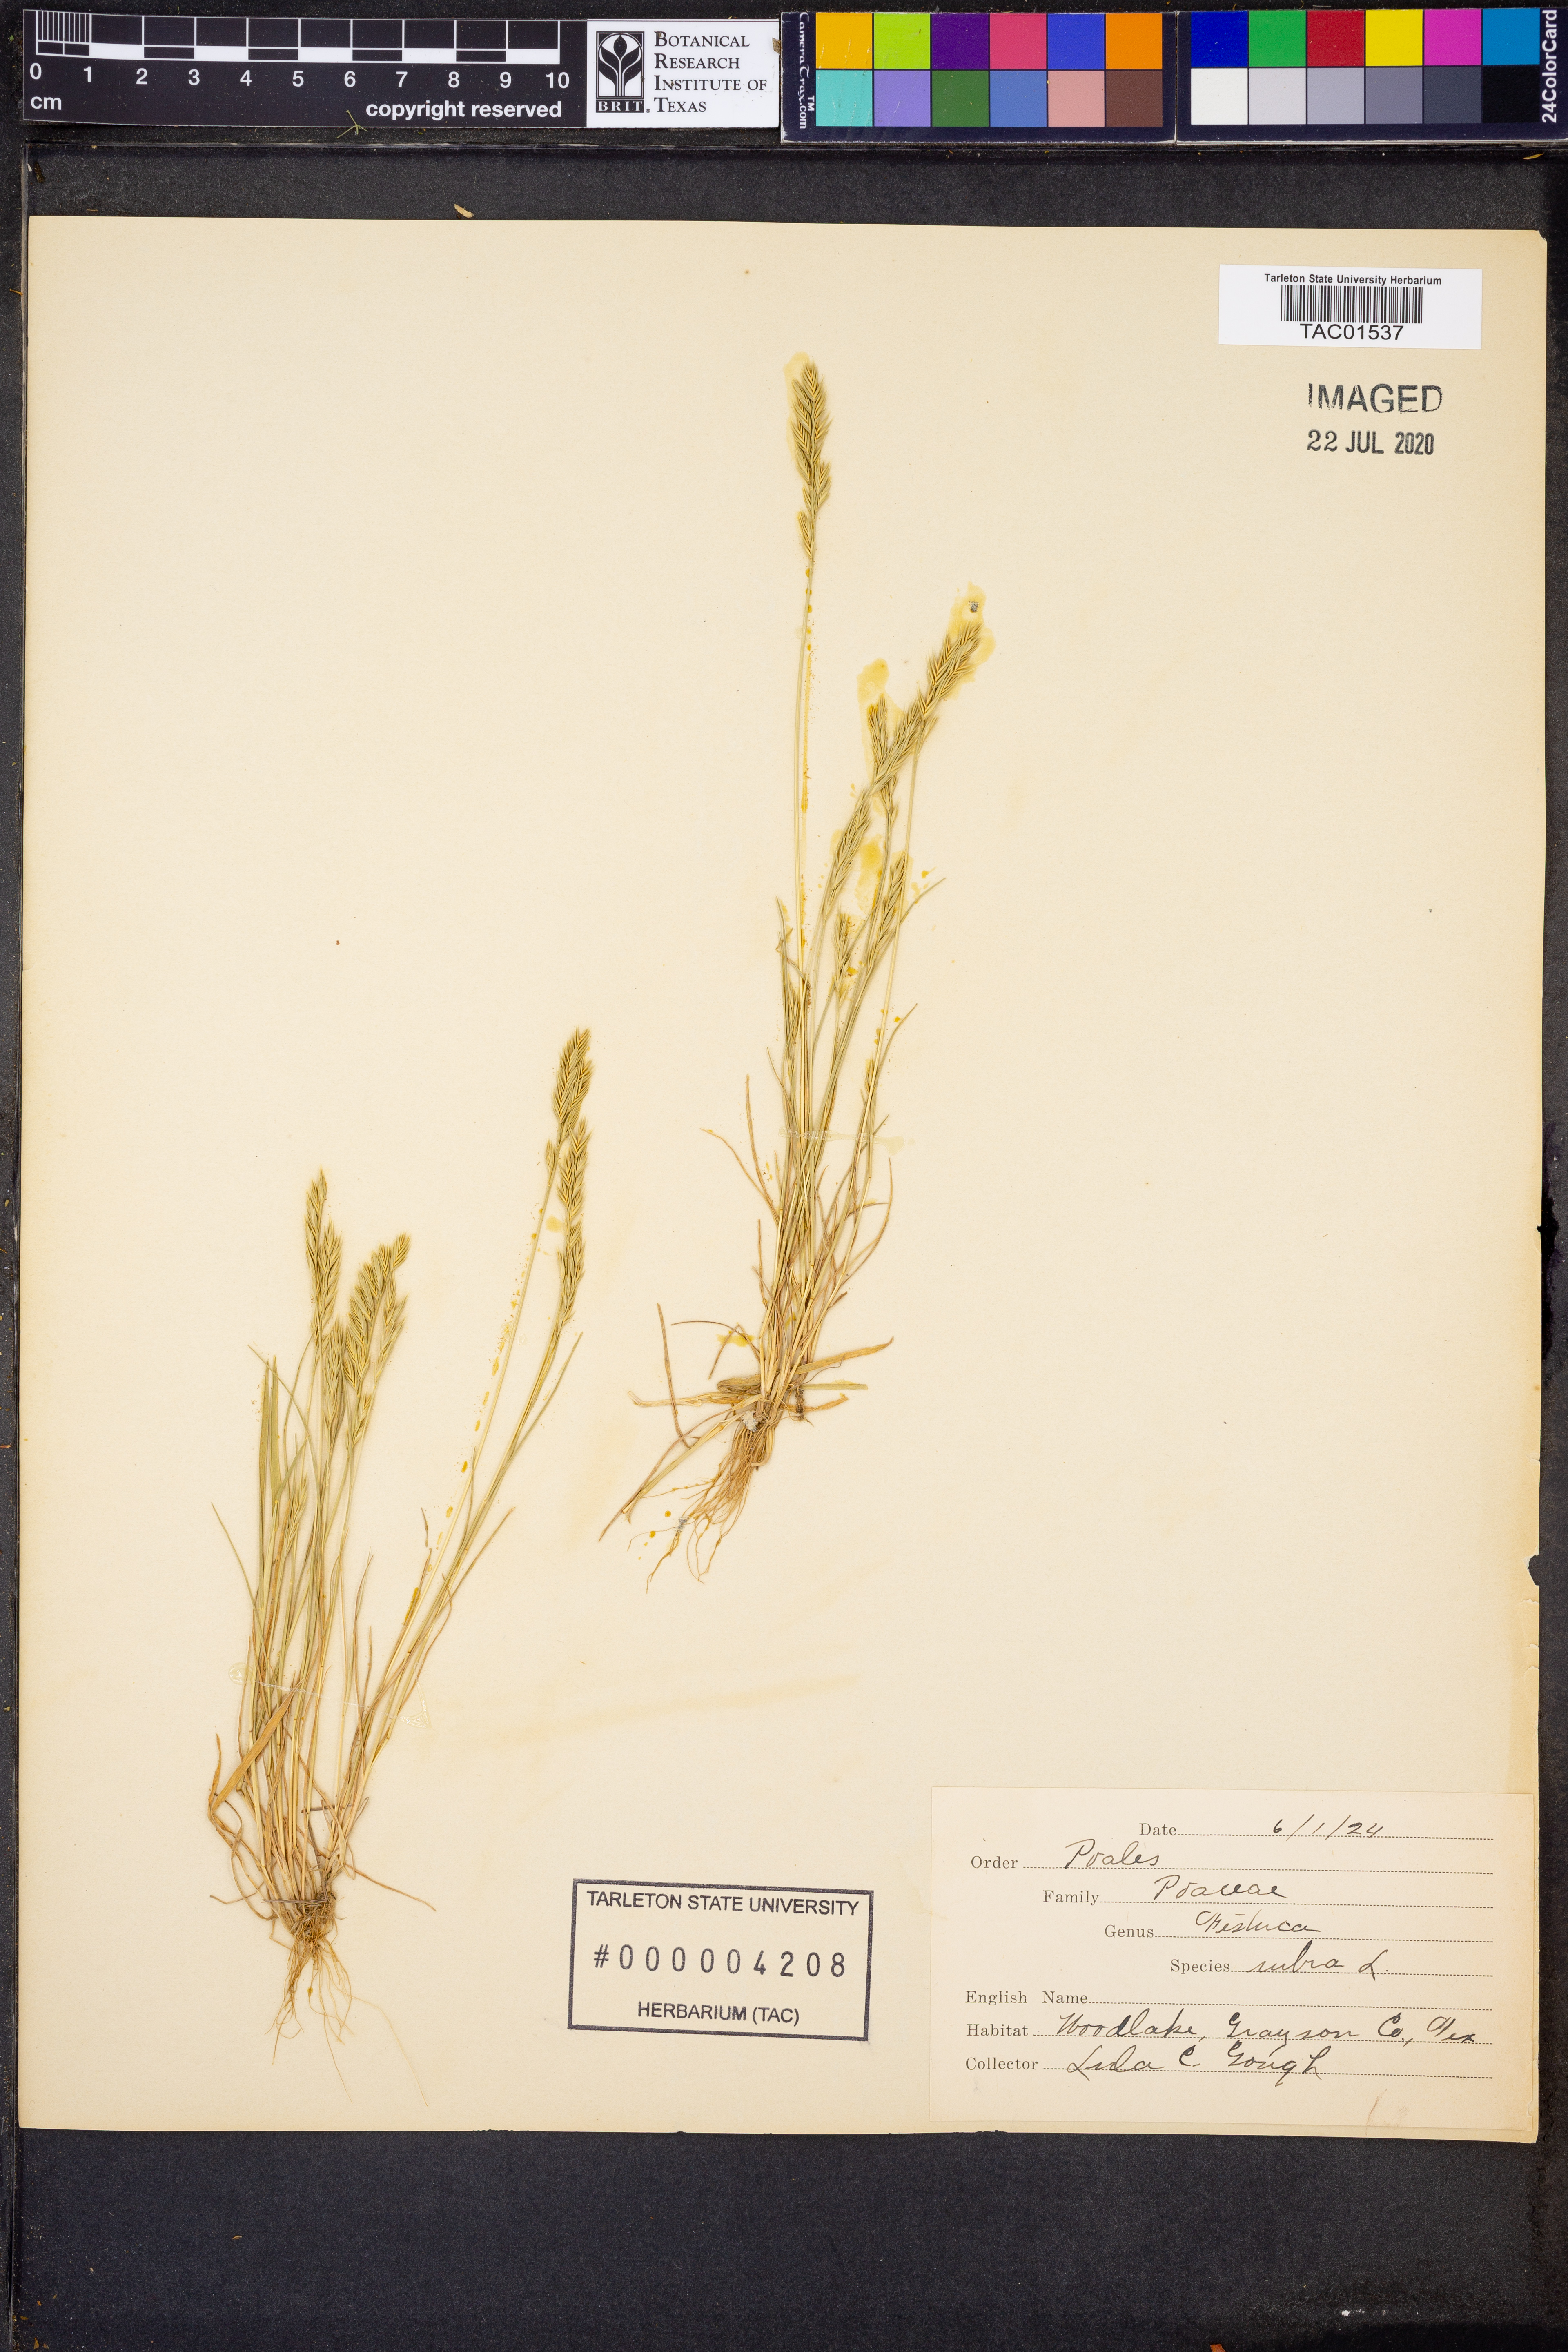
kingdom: Plantae
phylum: Tracheophyta
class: Liliopsida
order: Poales
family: Poaceae
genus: Festuca
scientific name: Festuca rubra
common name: Red fescue
